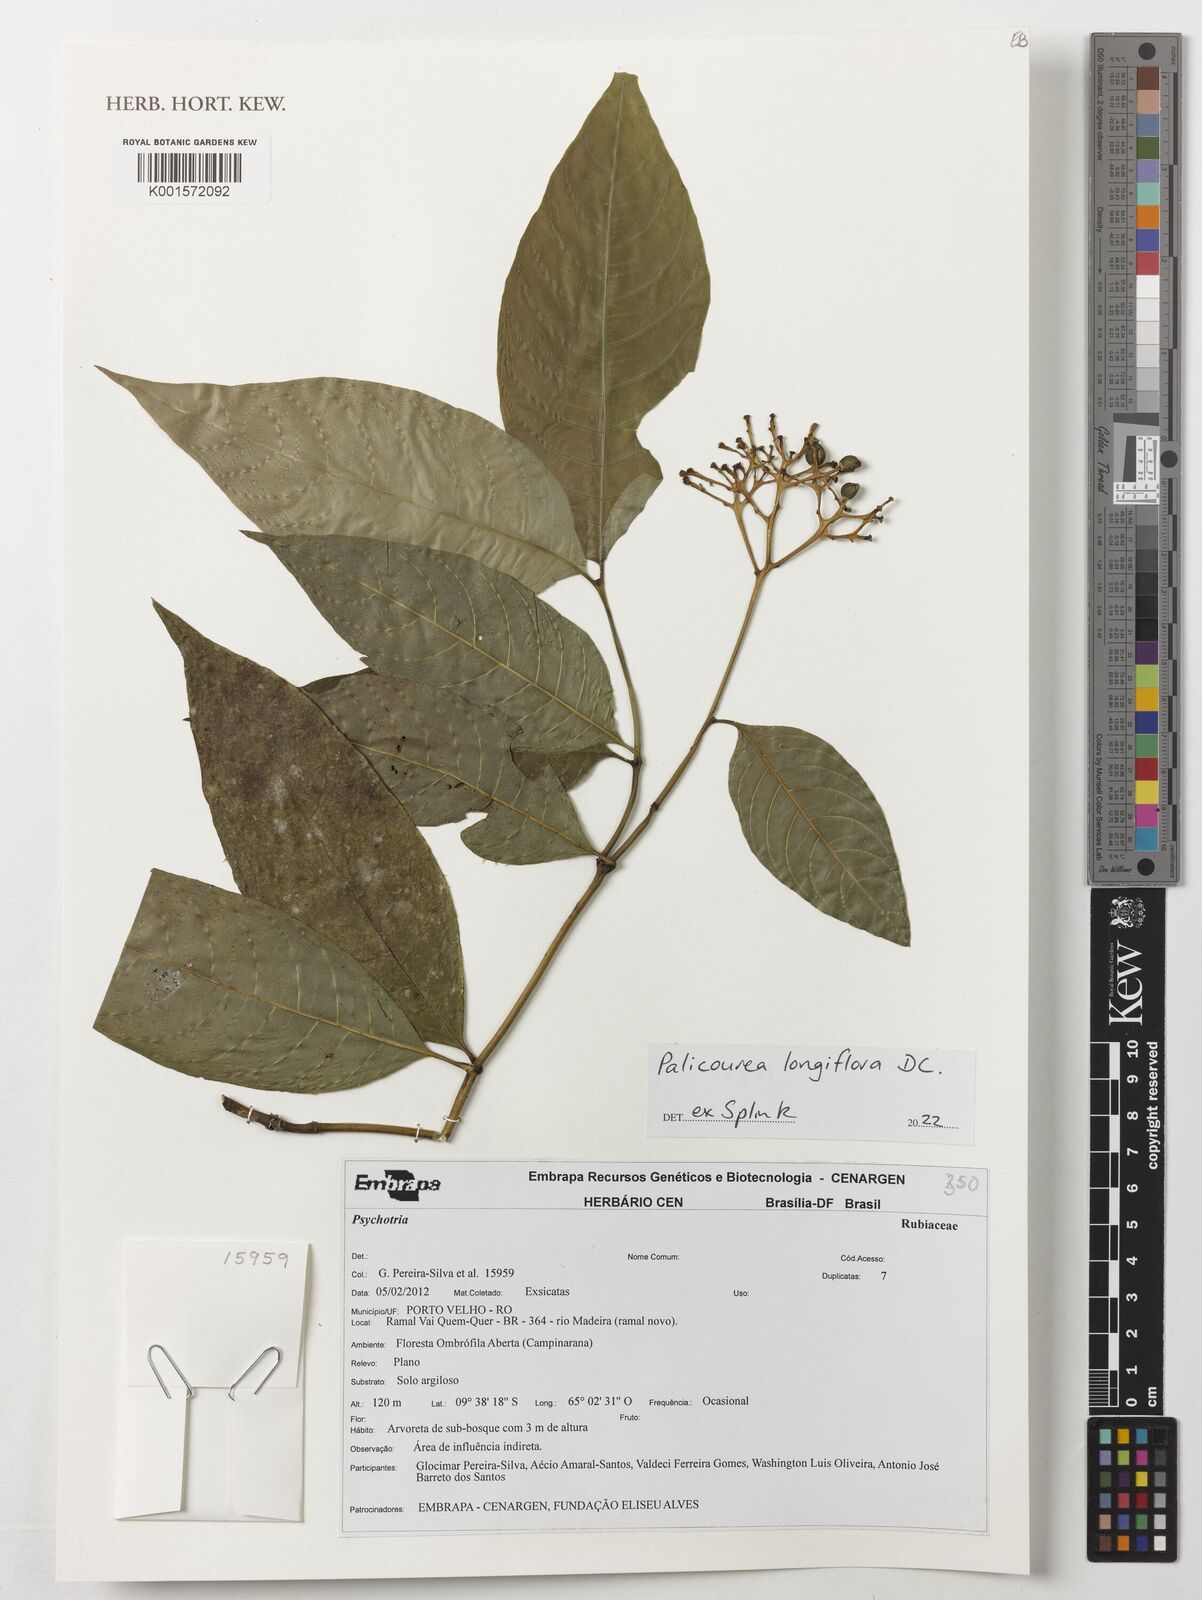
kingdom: Plantae
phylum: Tracheophyta
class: Magnoliopsida
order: Gentianales
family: Rubiaceae
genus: Palicourea
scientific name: Palicourea longiflora
